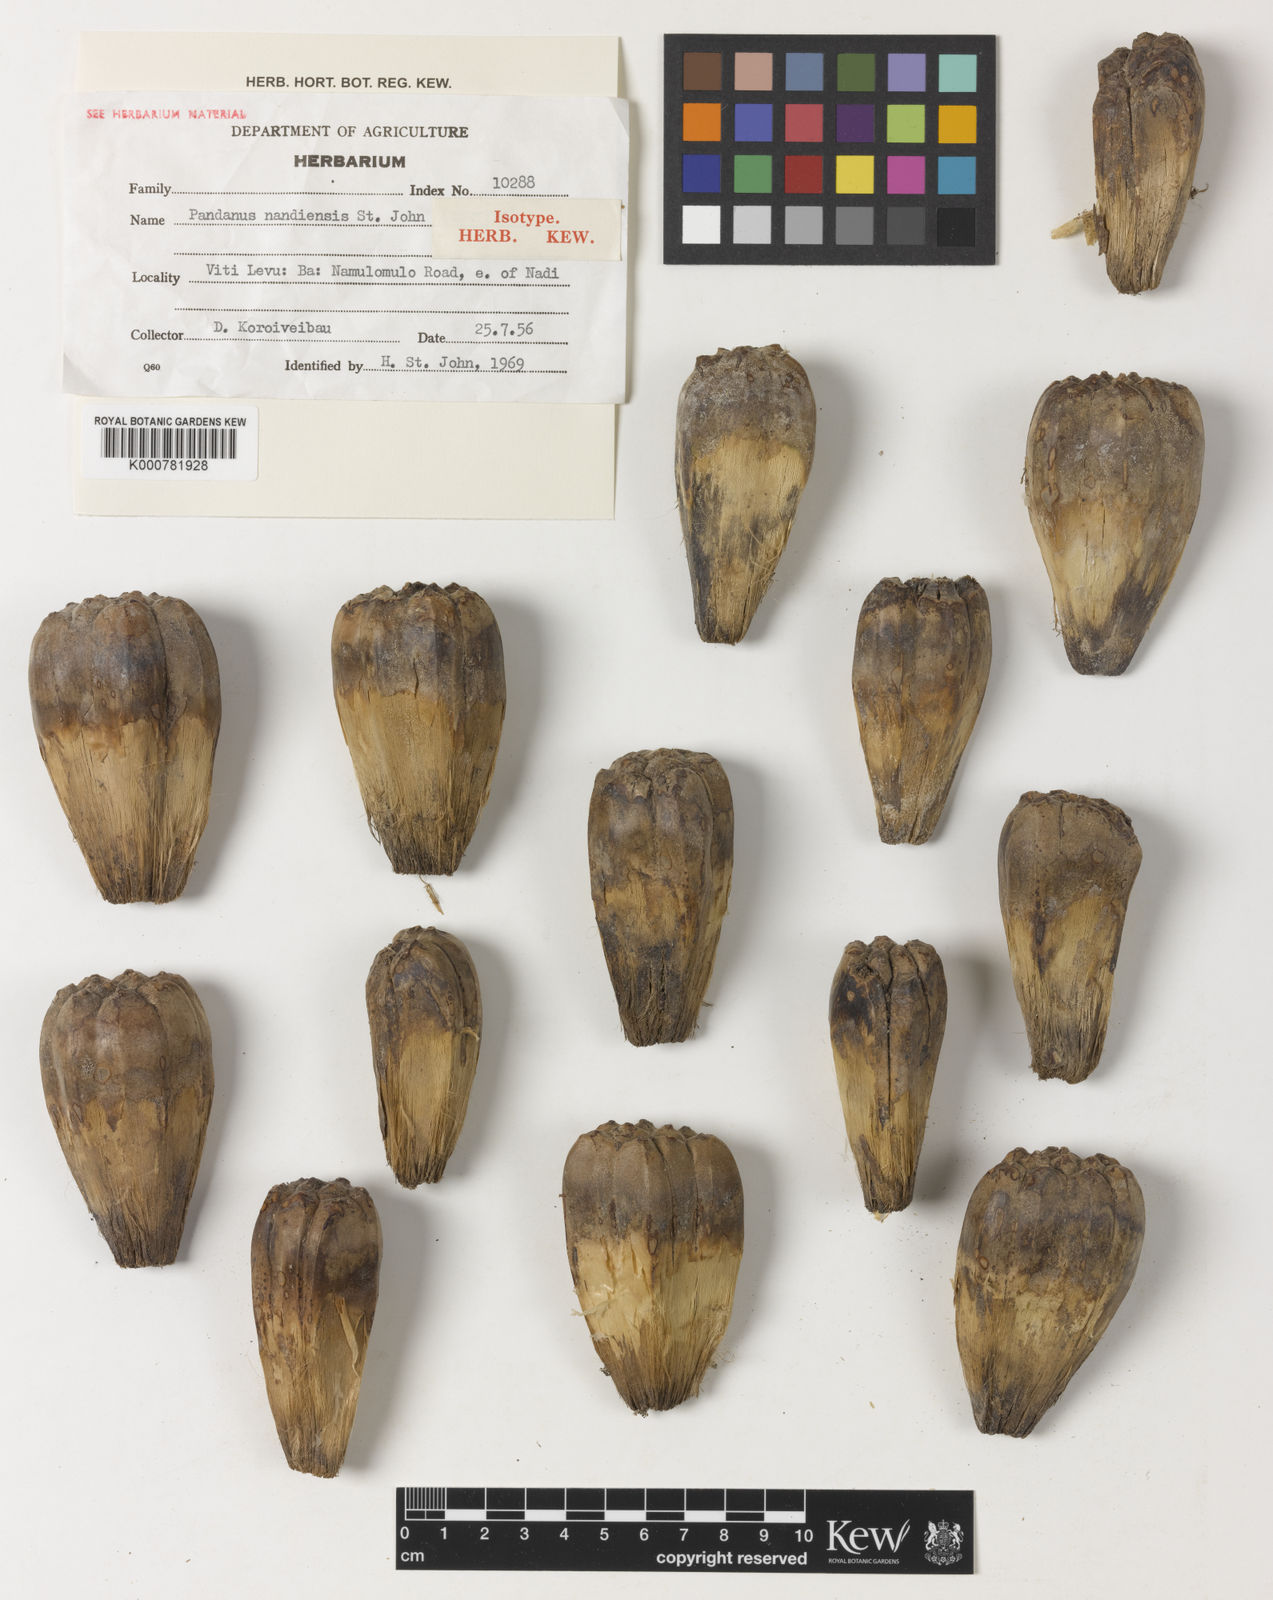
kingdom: Plantae
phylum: Tracheophyta
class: Liliopsida
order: Pandanales
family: Pandanaceae
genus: Pandanus
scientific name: Pandanus tectorius
